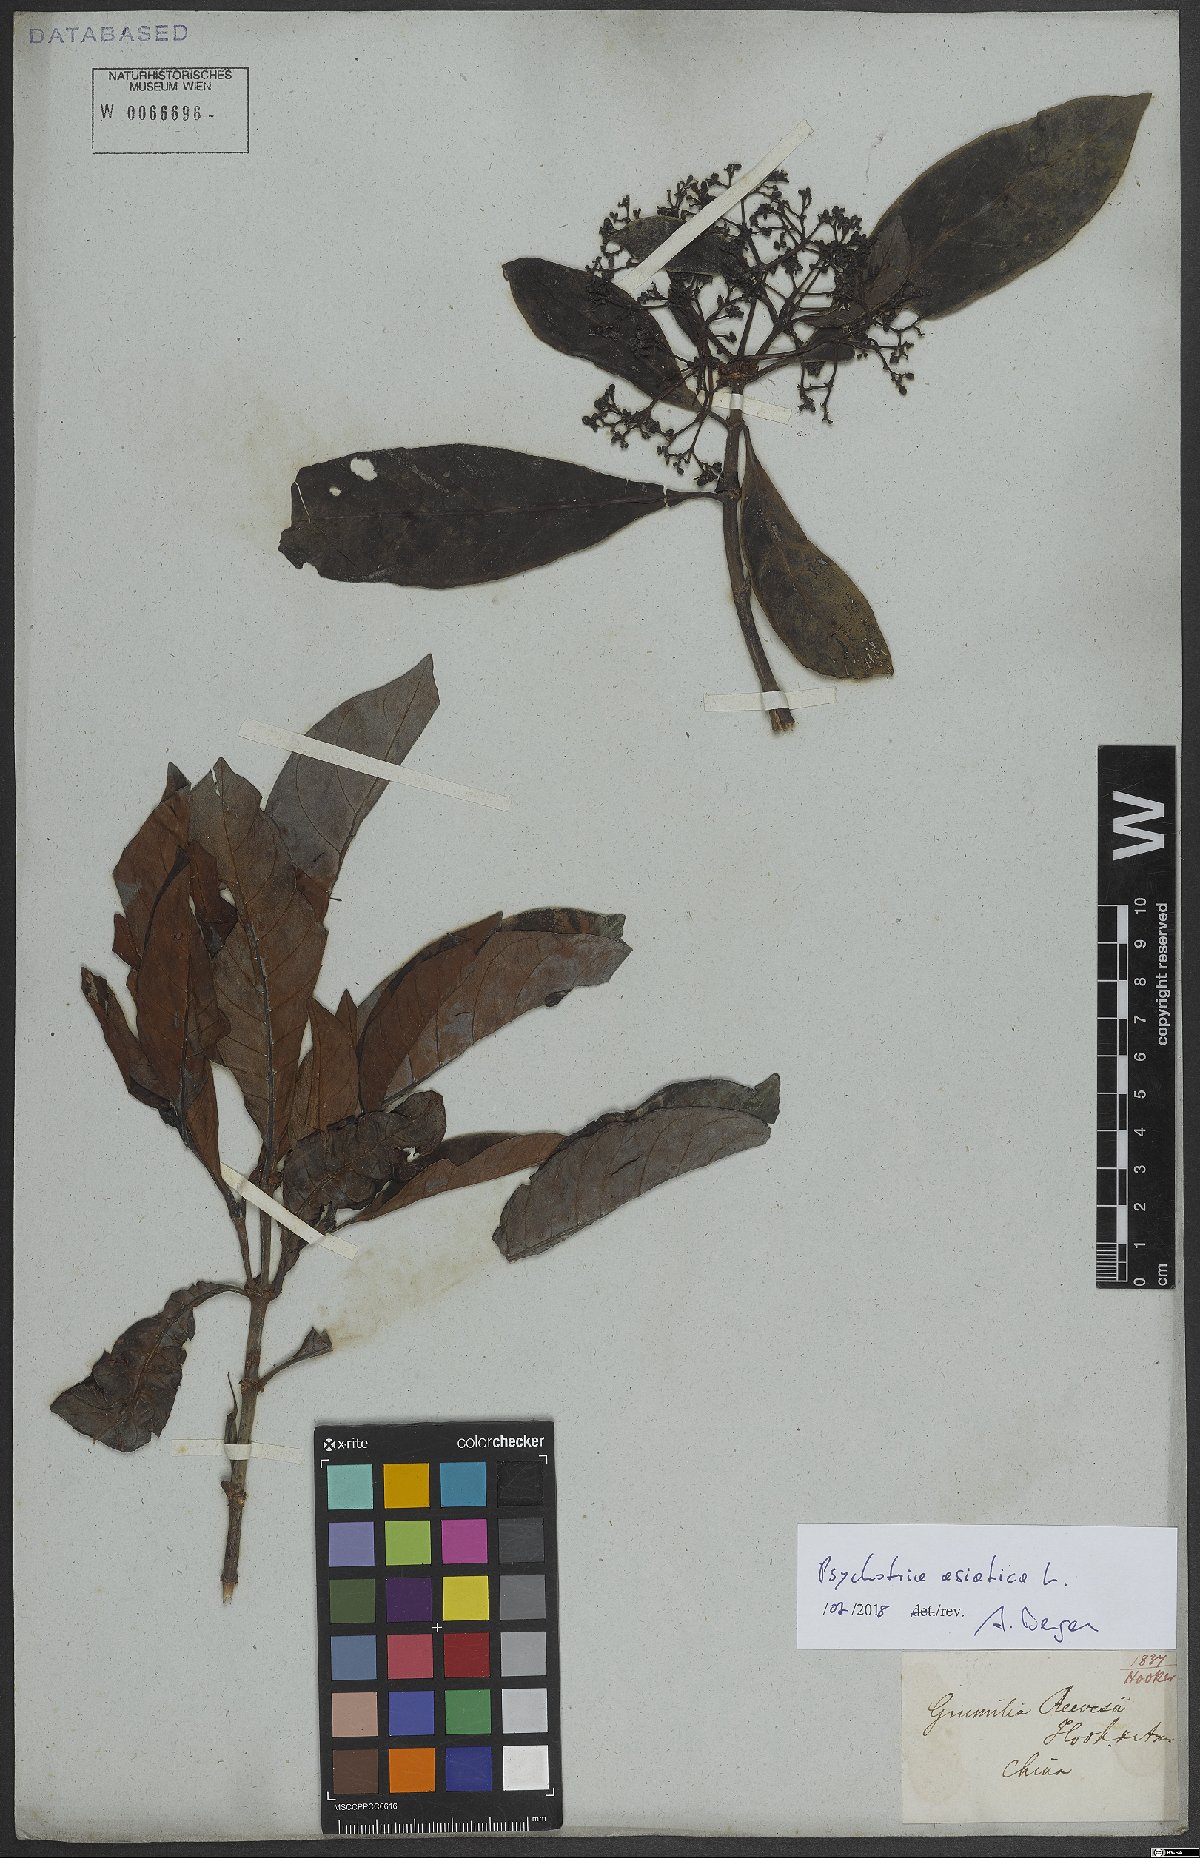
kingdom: Plantae
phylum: Tracheophyta
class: Magnoliopsida
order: Gentianales
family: Rubiaceae
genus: Psychotria
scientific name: Psychotria asiatica
